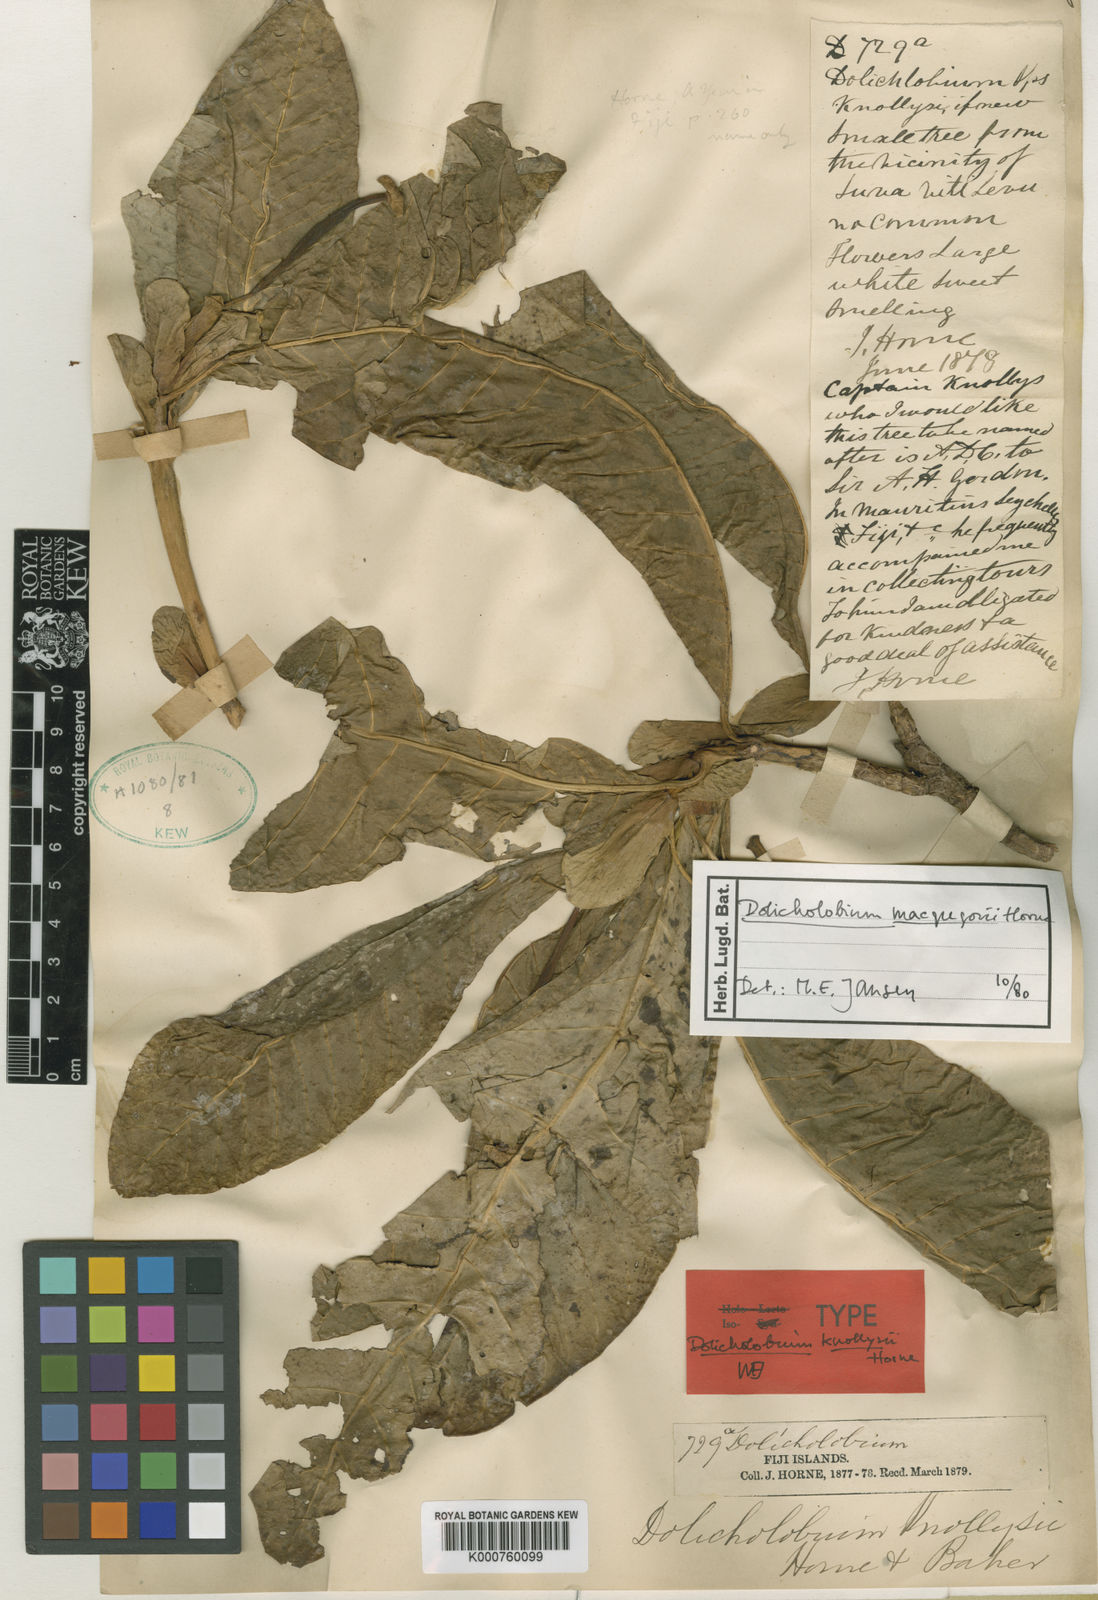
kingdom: Plantae
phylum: Tracheophyta
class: Magnoliopsida
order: Gentianales
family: Rubiaceae
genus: Dolicholobium
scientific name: Dolicholobium macgregorii
